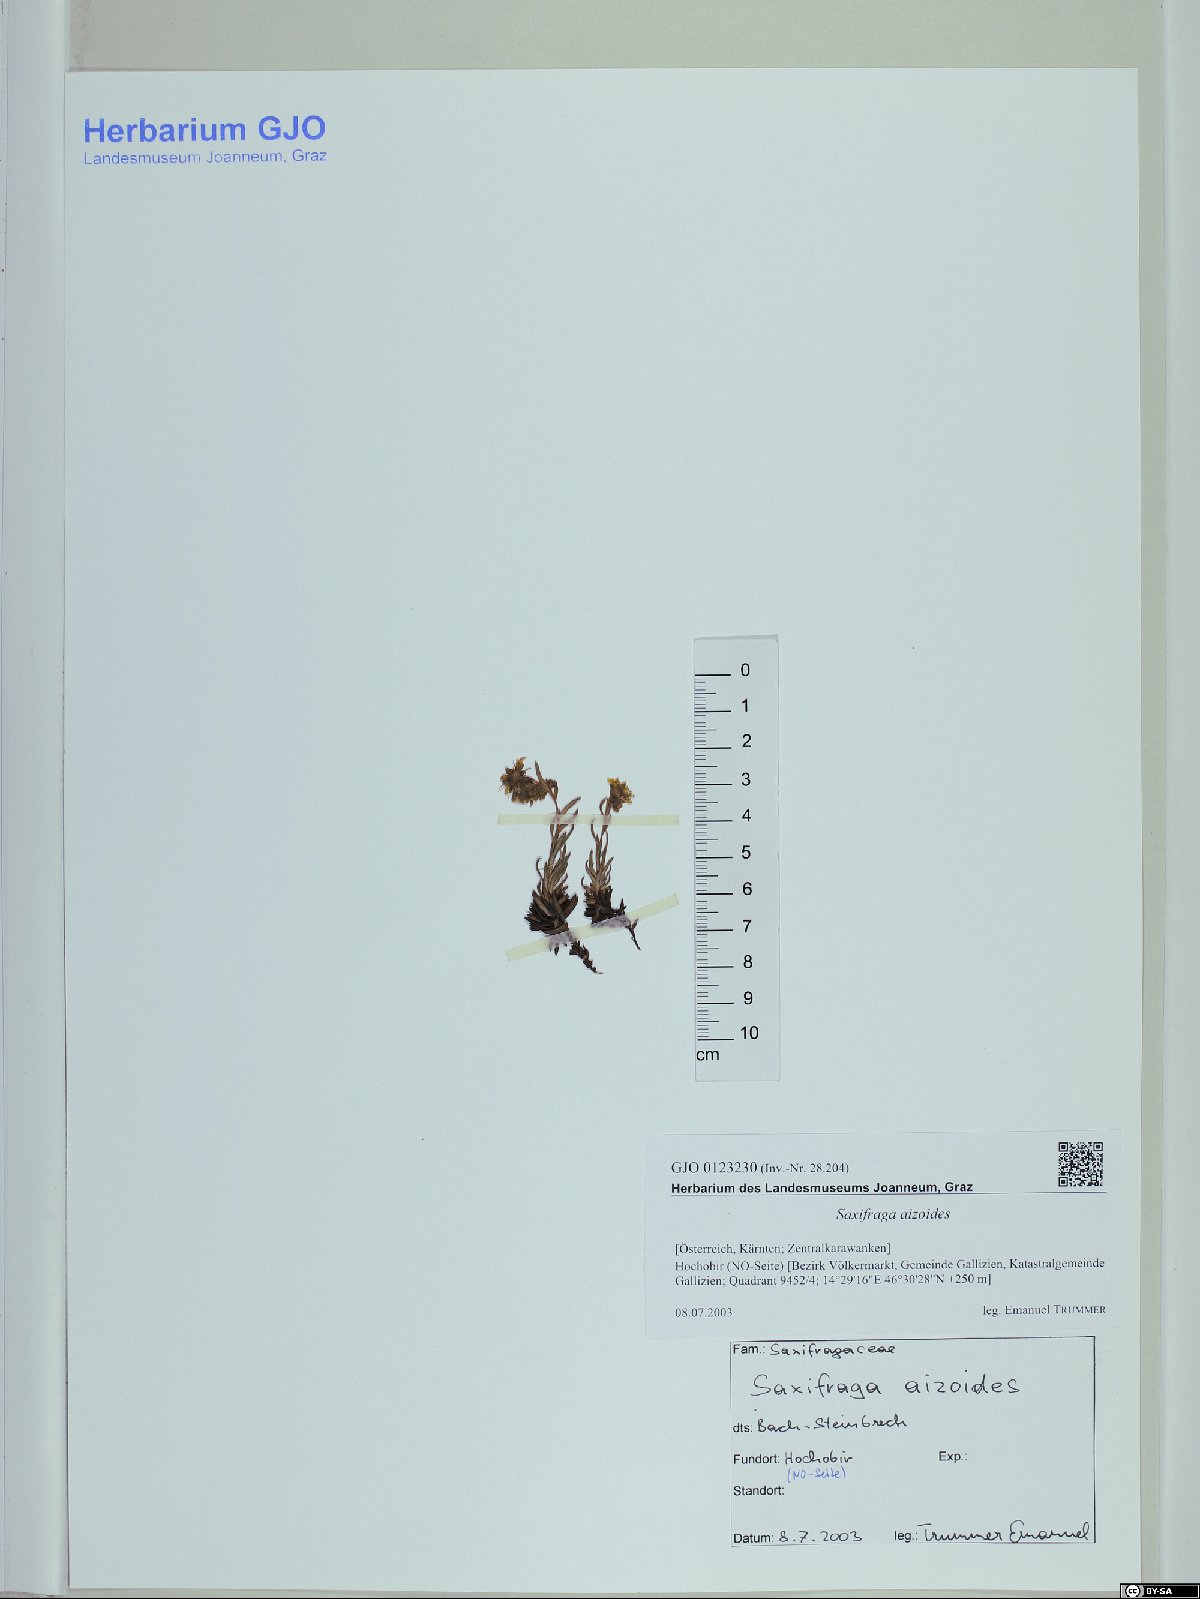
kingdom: Plantae
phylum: Tracheophyta
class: Magnoliopsida
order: Saxifragales
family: Saxifragaceae
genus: Saxifraga
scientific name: Saxifraga aizoides
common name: Yellow mountain saxifrage
